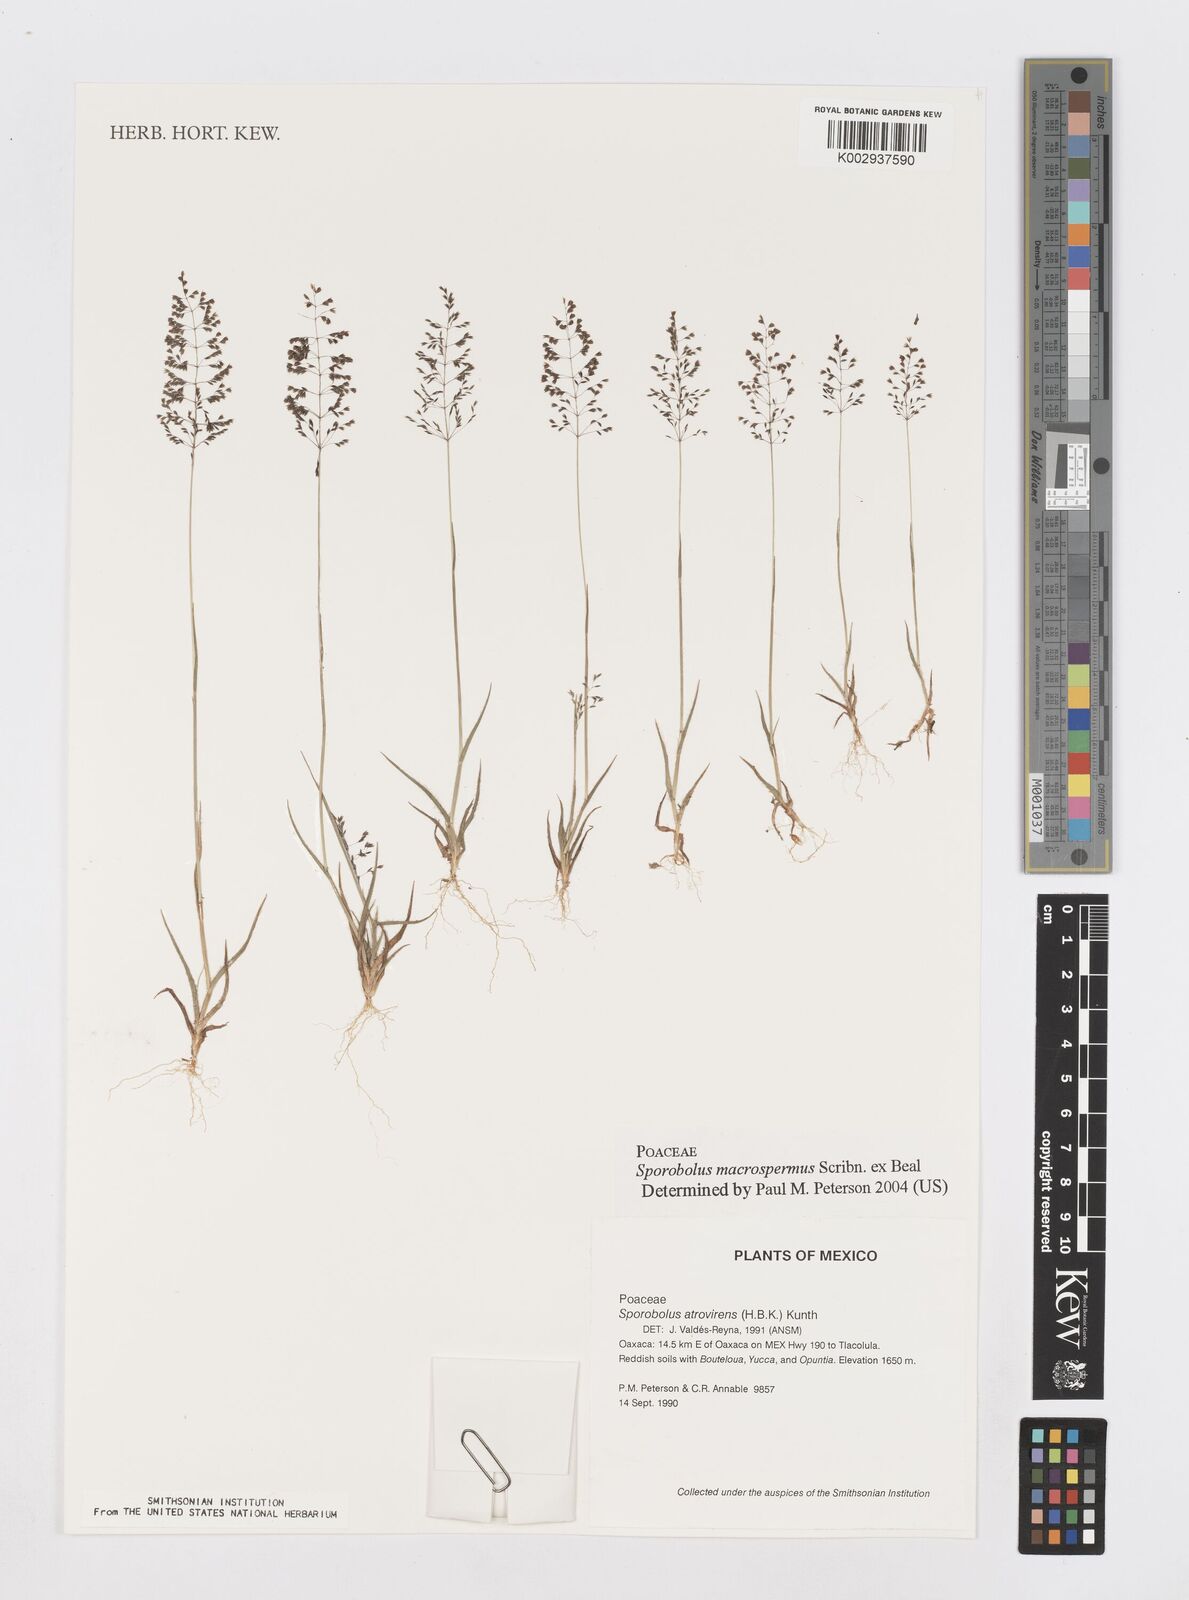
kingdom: Plantae
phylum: Tracheophyta
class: Liliopsida
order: Poales
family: Poaceae
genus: Sporobolus
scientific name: Sporobolus macrospermus
